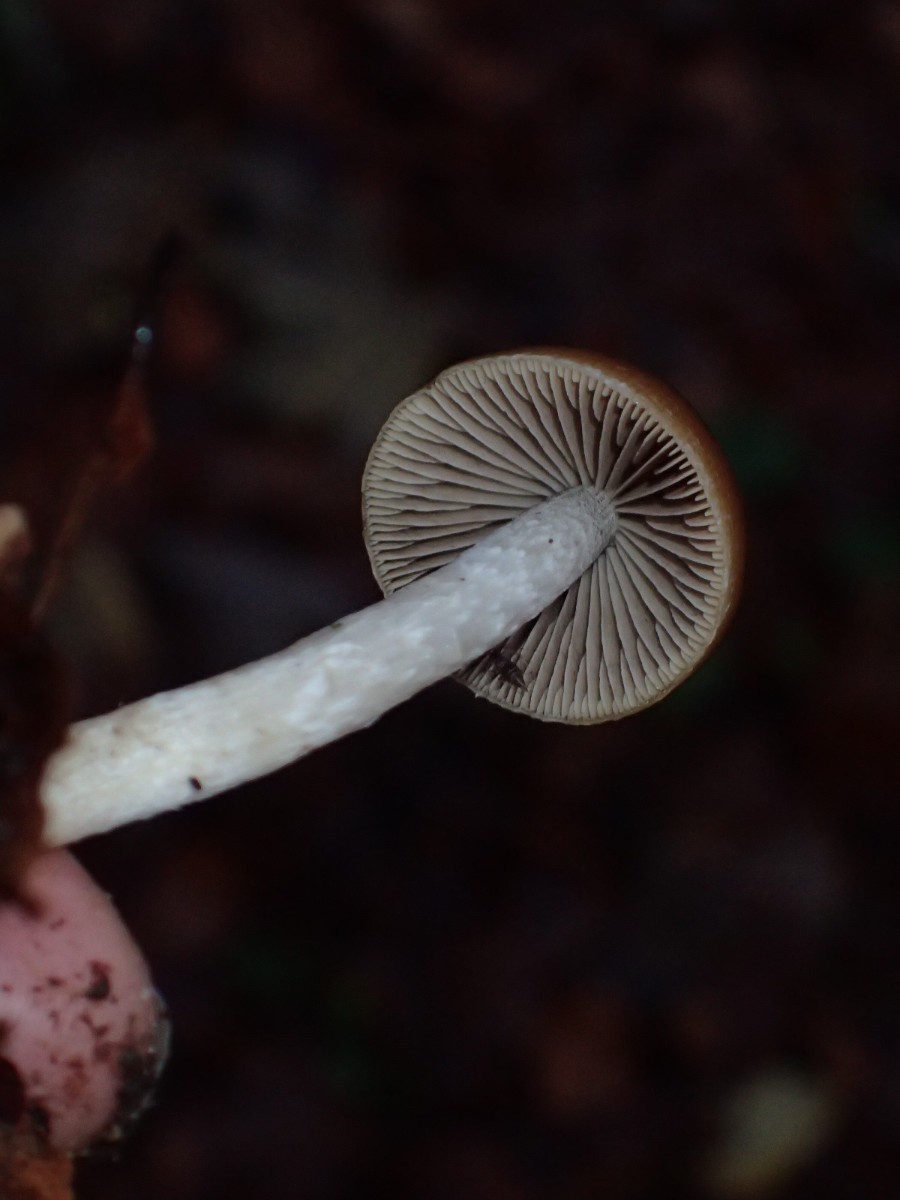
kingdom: Fungi
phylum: Basidiomycota
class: Agaricomycetes
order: Agaricales
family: Psathyrellaceae
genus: Psathyrella
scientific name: Psathyrella
